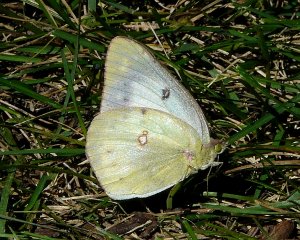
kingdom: Animalia
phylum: Arthropoda
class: Insecta
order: Lepidoptera
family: Pieridae
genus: Colias
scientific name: Colias philodice
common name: Clouded Sulphur
